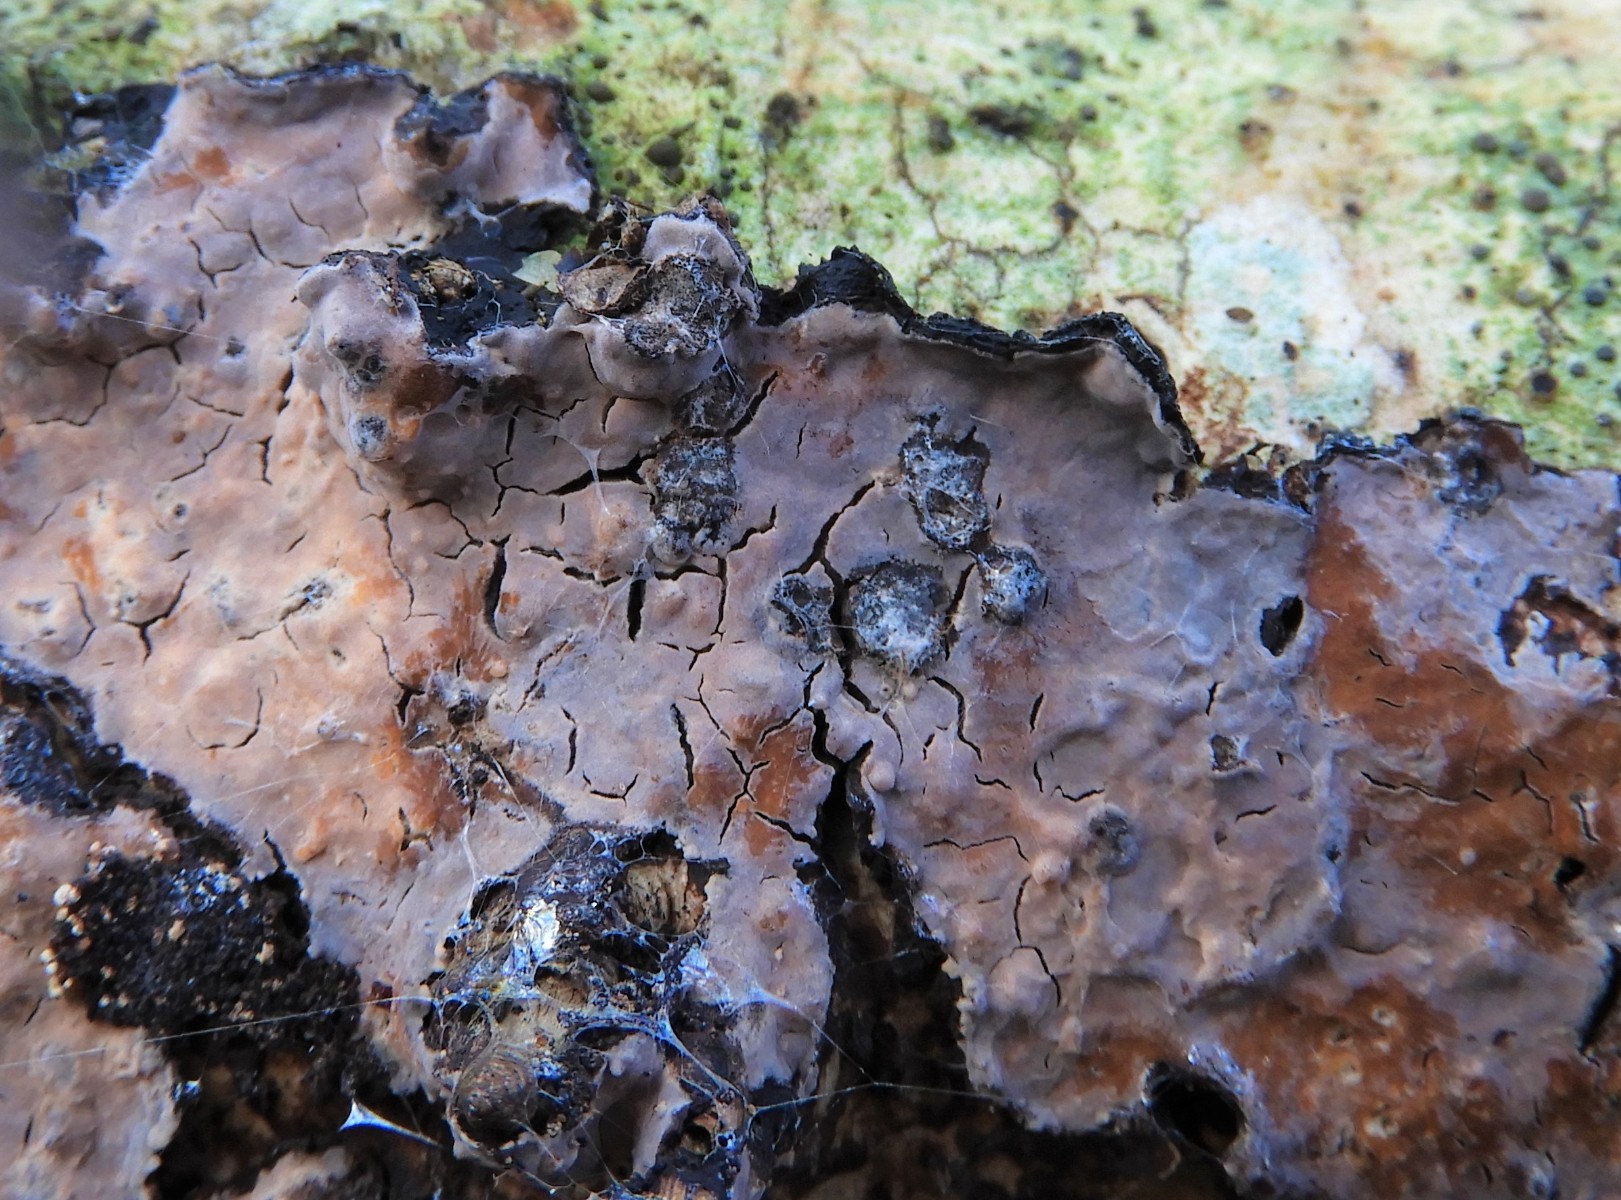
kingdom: Fungi
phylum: Basidiomycota
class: Agaricomycetes
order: Russulales
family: Peniophoraceae
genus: Peniophora
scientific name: Peniophora quercina
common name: ege-voksskind
